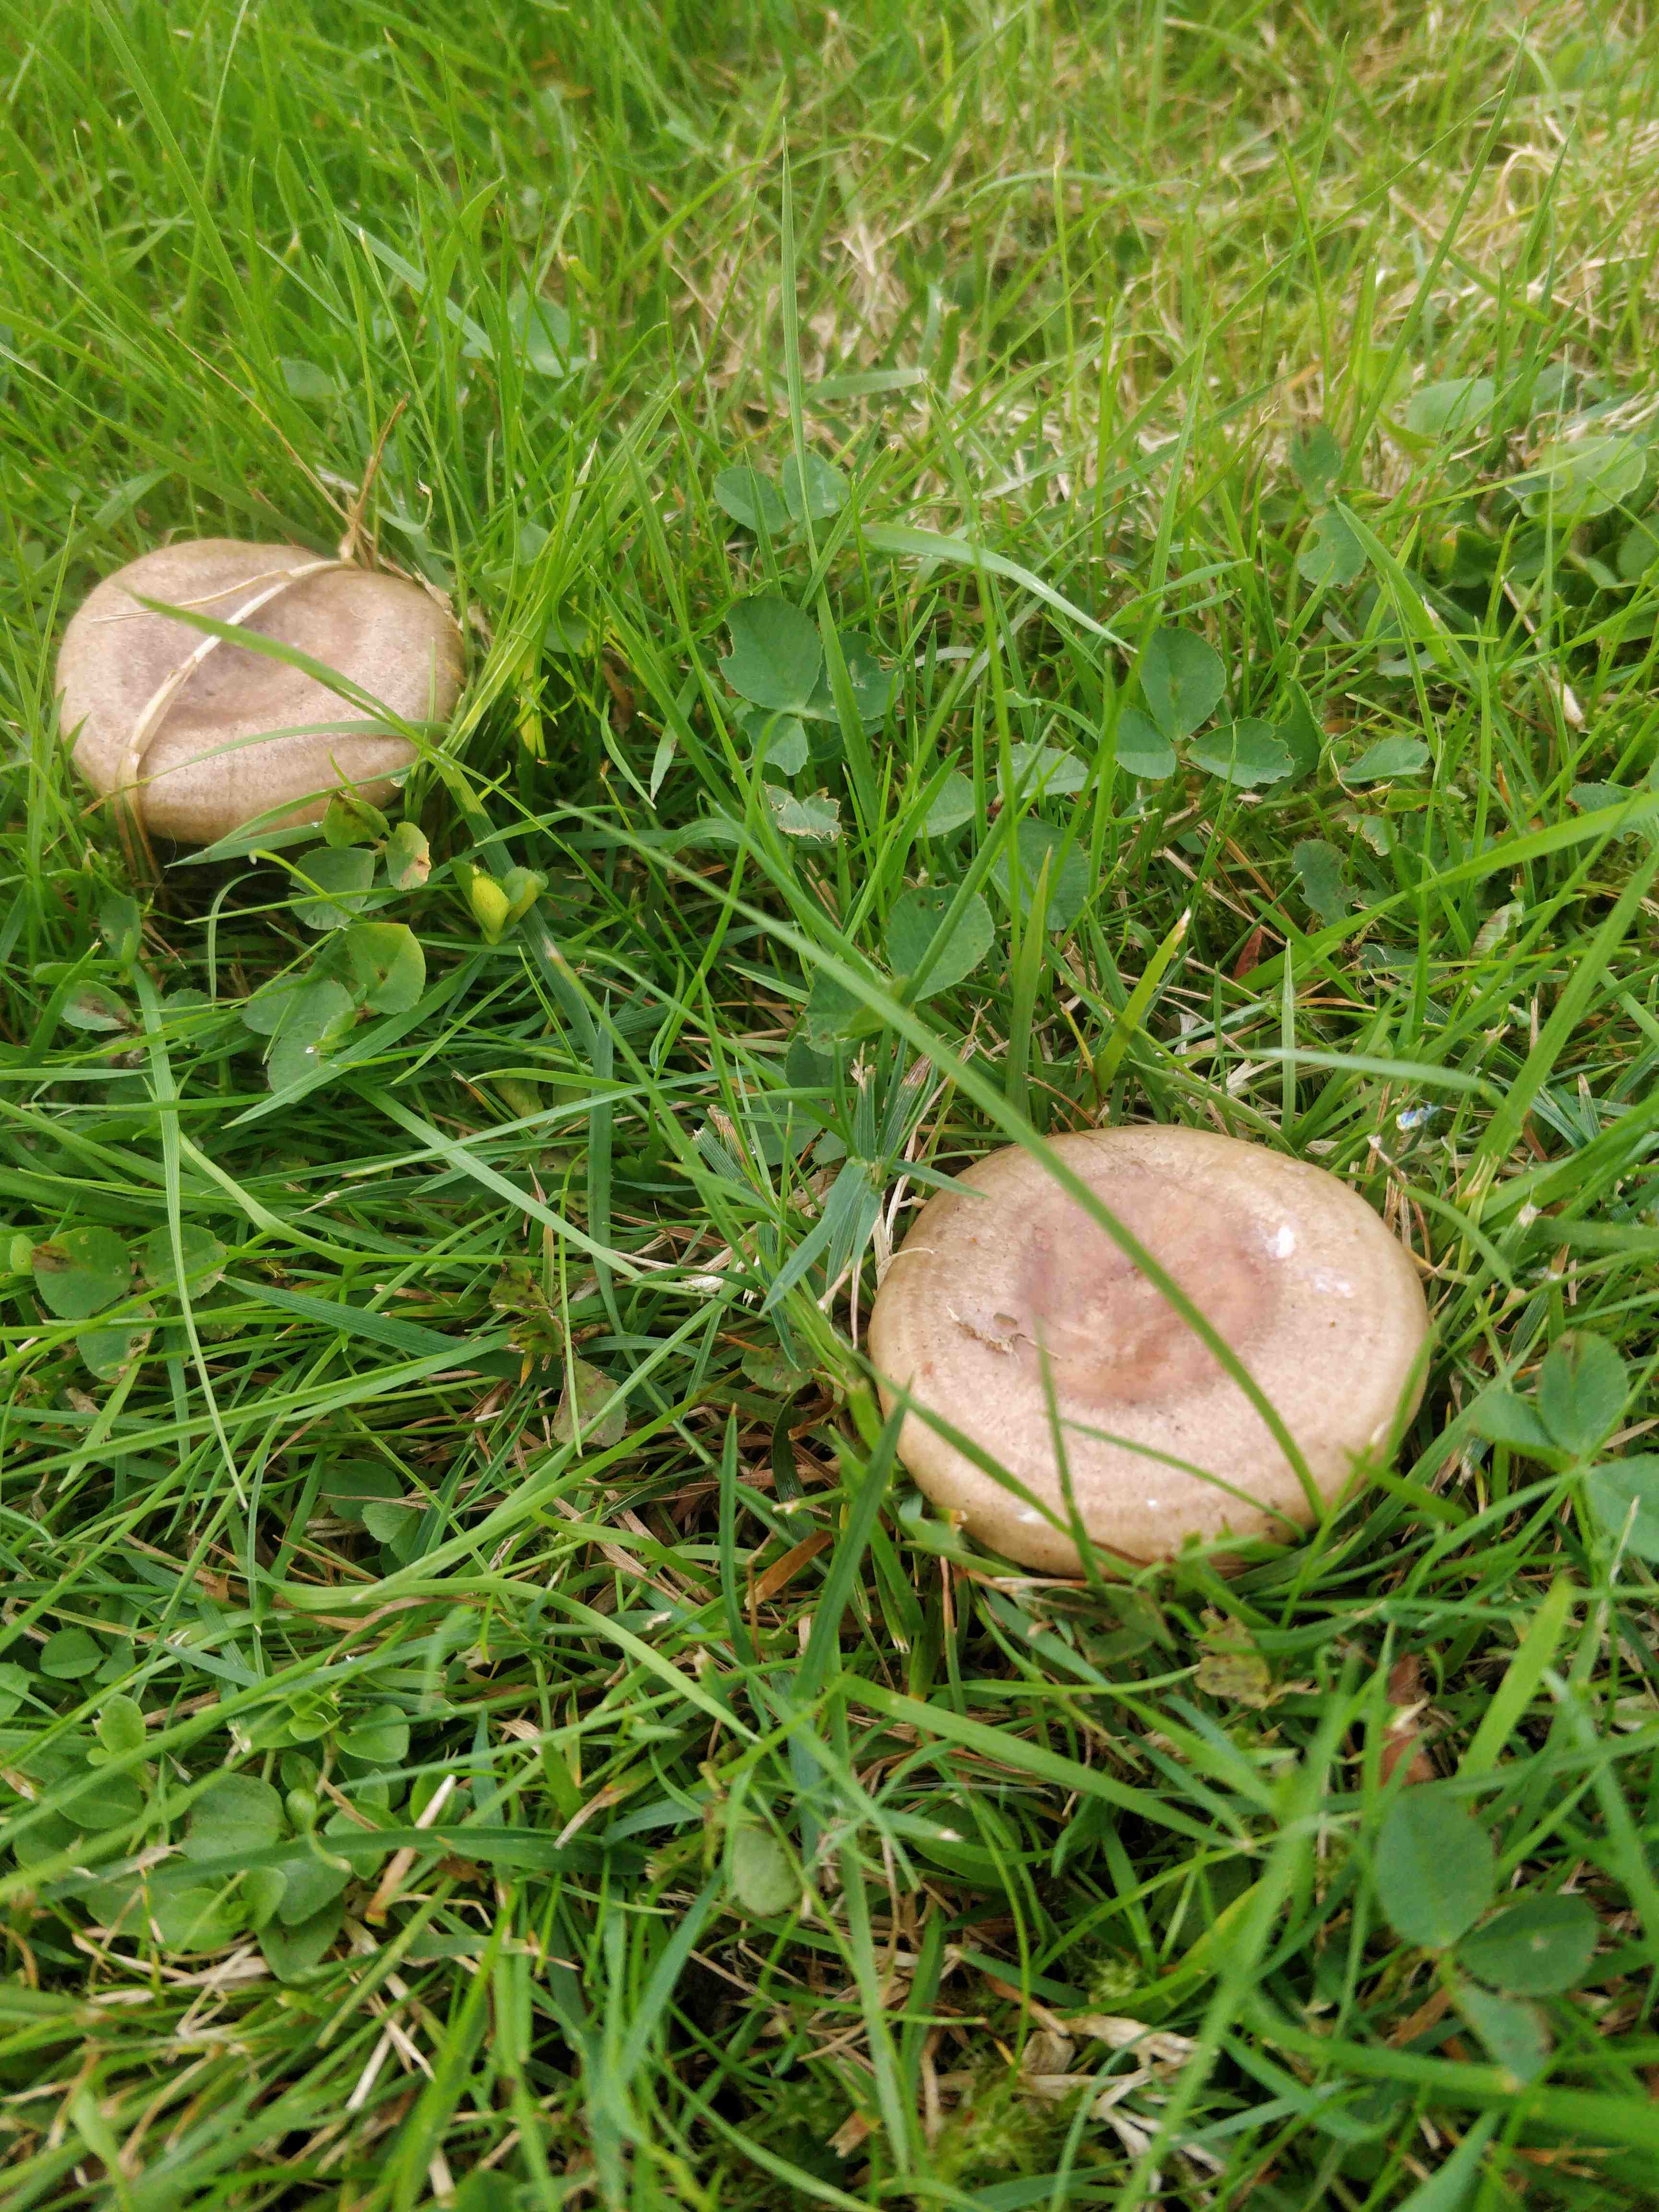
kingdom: Fungi
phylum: Basidiomycota
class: Agaricomycetes
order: Russulales
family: Russulaceae
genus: Lactarius
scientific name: Lactarius pyrogalus
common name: hassel-mælkehat
